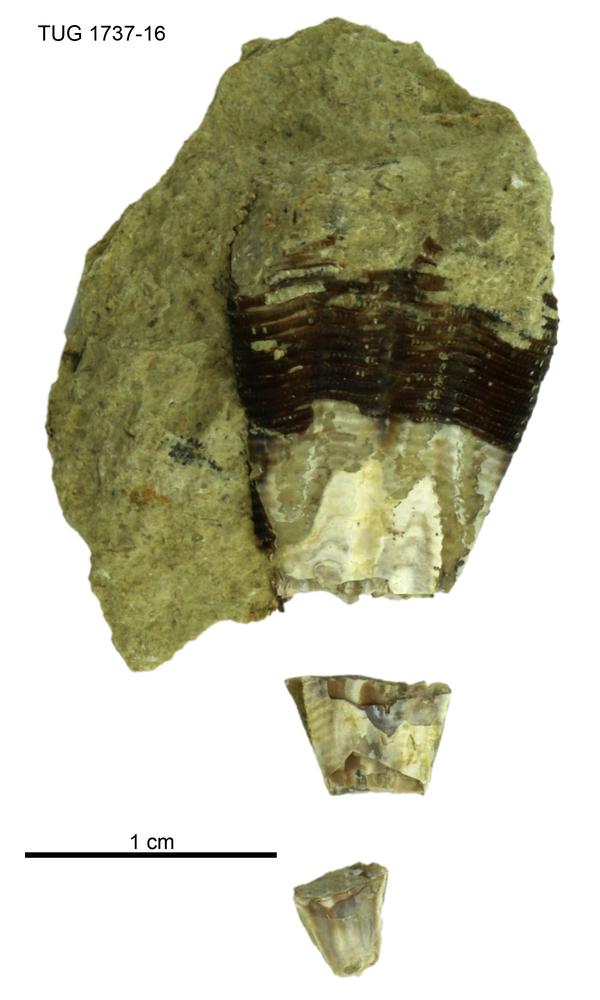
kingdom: Animalia
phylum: Cnidaria
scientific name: Cnidaria
